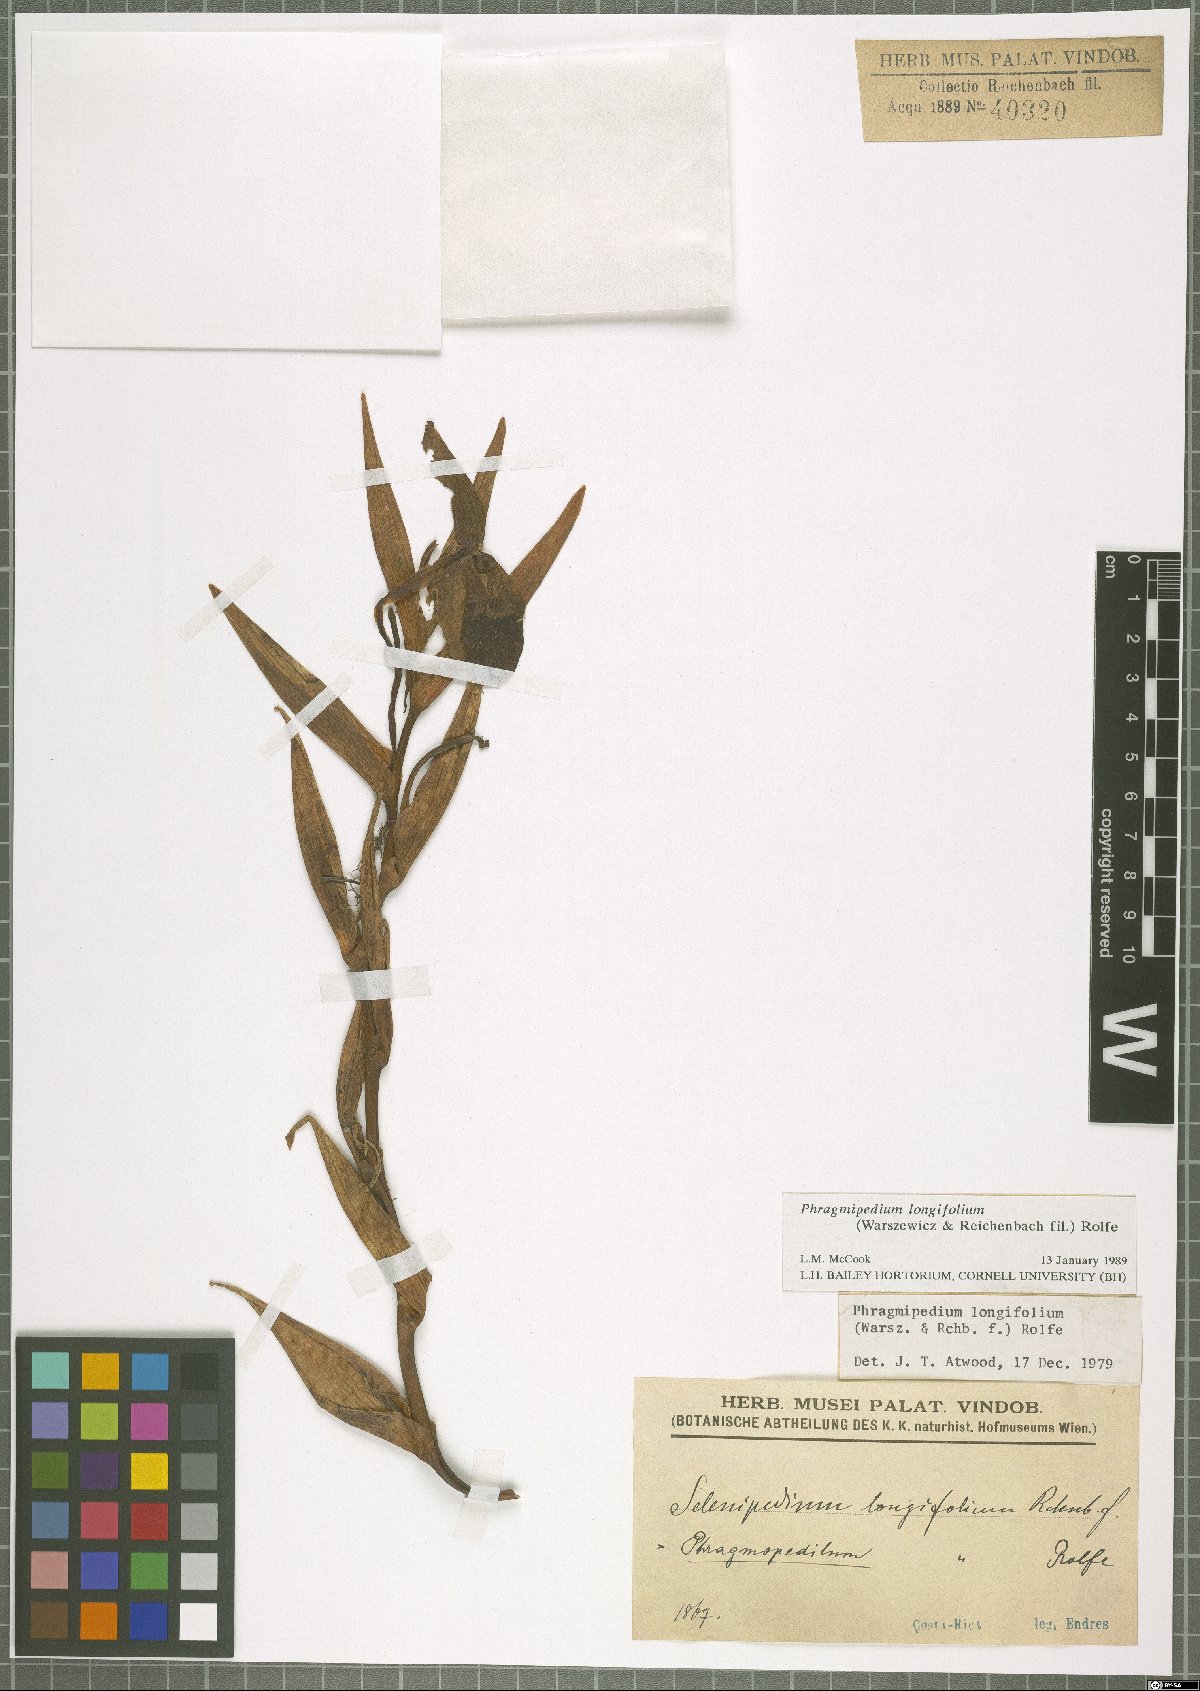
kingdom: Plantae
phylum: Tracheophyta
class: Liliopsida
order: Asparagales
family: Orchidaceae
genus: Phragmipedium
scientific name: Phragmipedium longifolium
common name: Long-leaf phragmipedium
